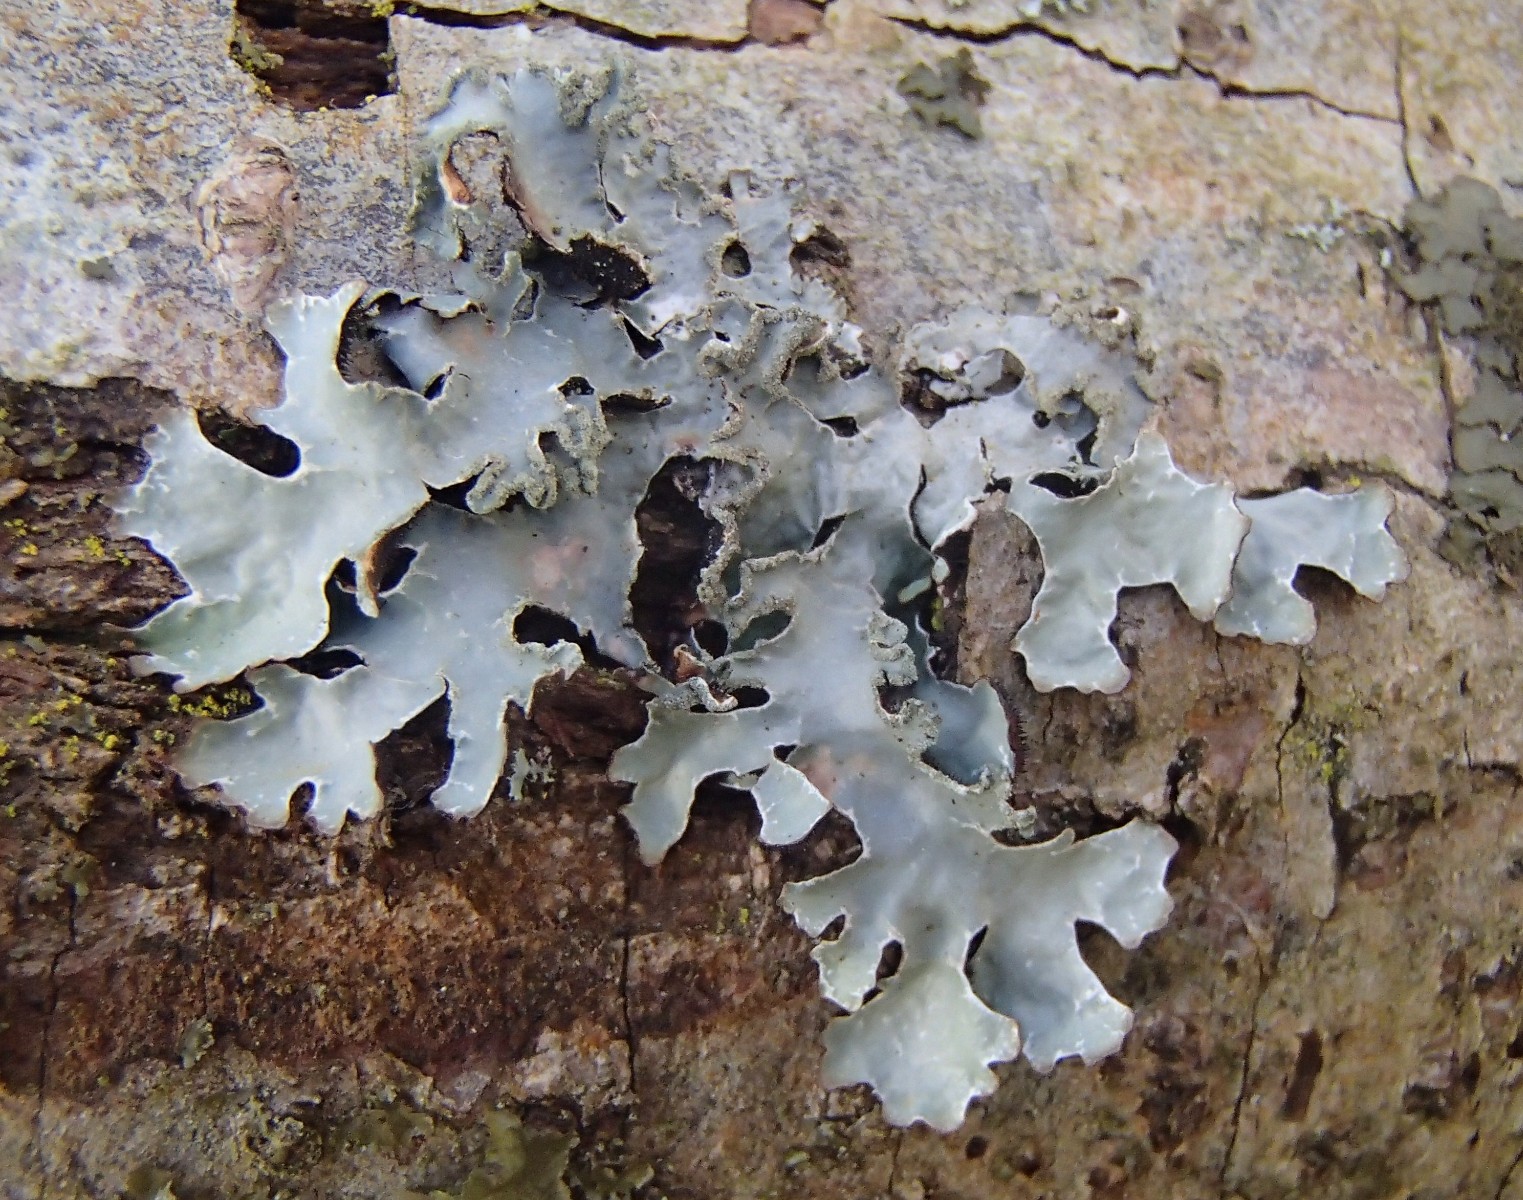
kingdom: Fungi
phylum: Ascomycota
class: Lecanoromycetes
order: Lecanorales
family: Parmeliaceae
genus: Parmelia
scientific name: Parmelia sulcata
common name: rynket skållav
